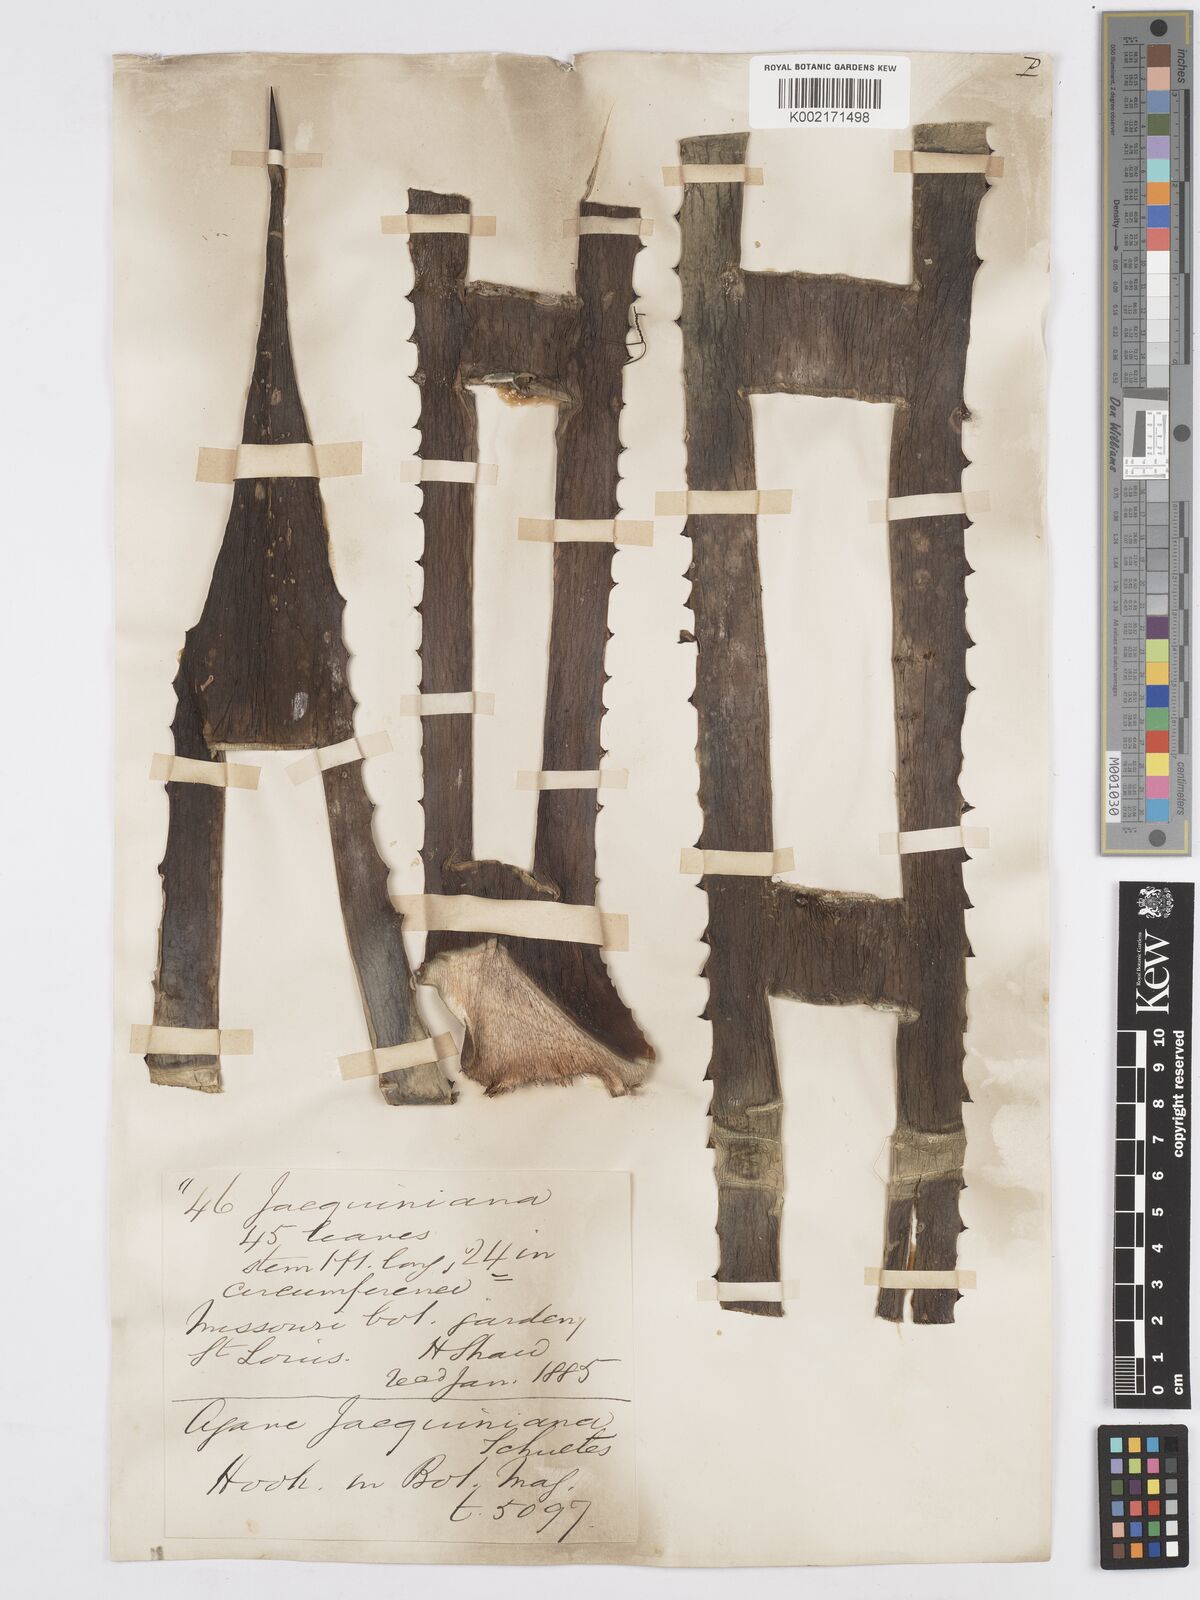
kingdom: Plantae
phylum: Tracheophyta
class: Liliopsida
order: Asparagales
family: Asparagaceae
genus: Agave
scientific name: Agave angustifolia
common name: Mescal agave
